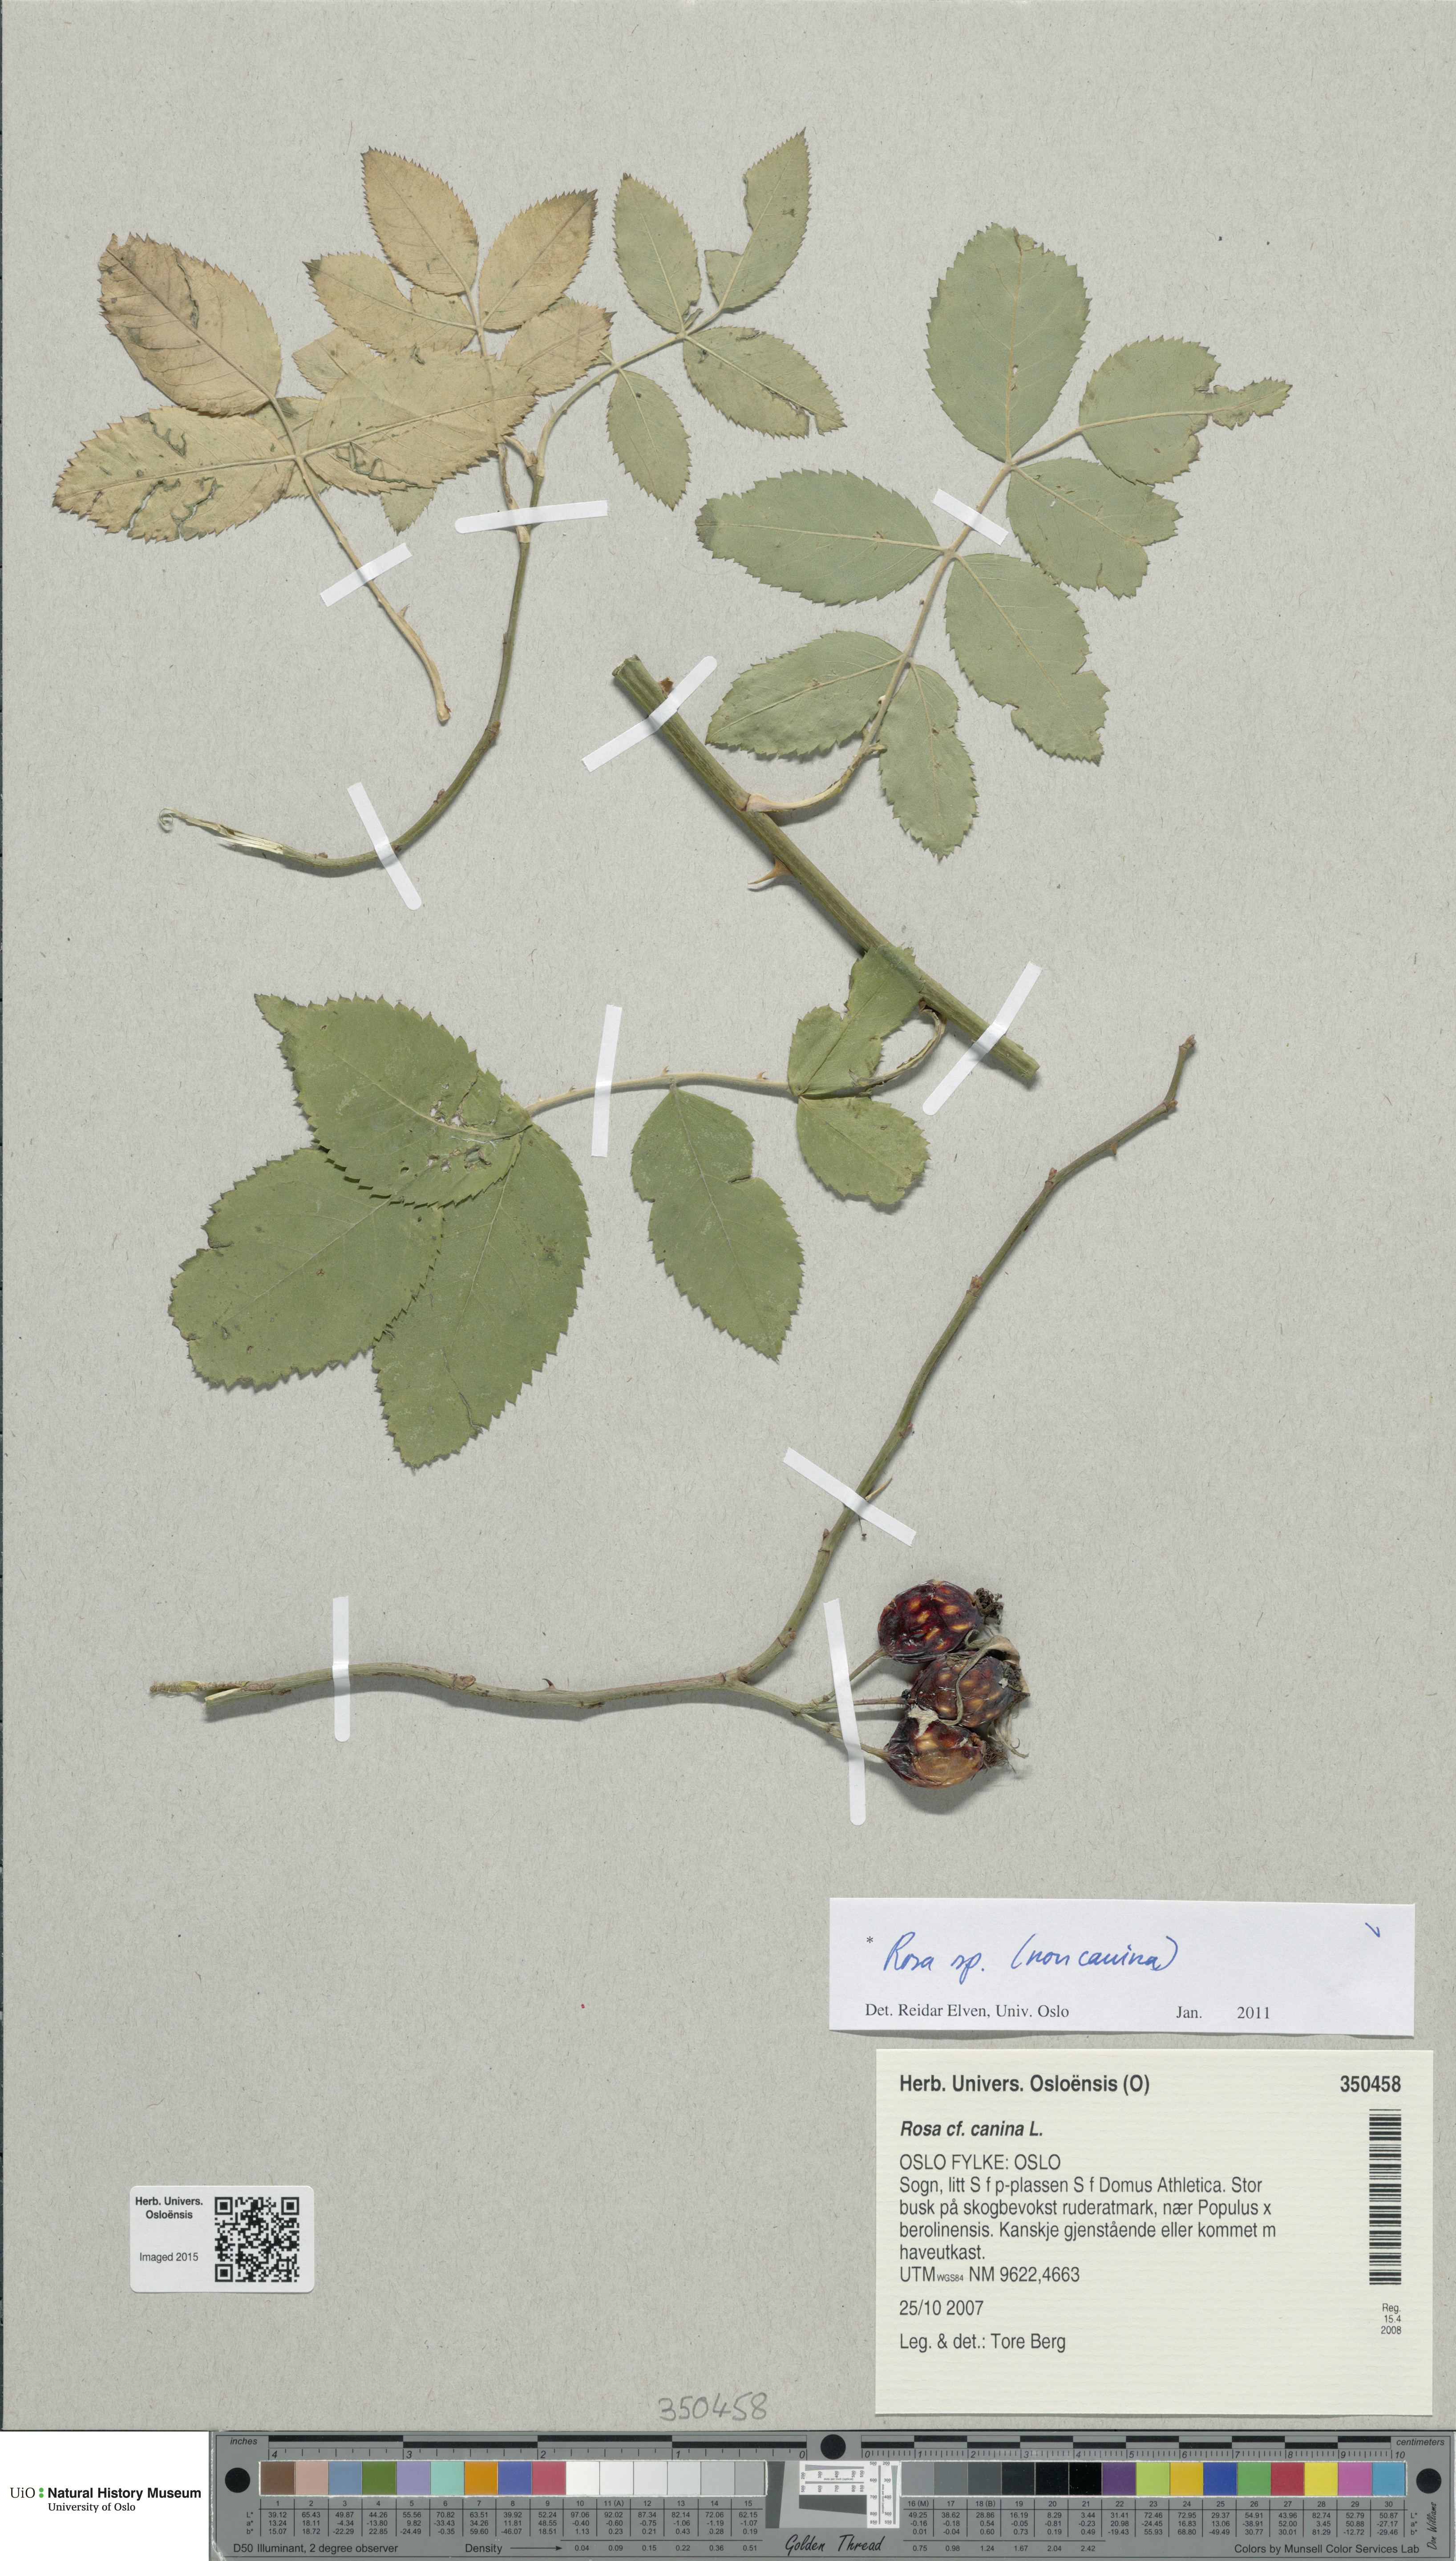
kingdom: Plantae
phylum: Tracheophyta
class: Magnoliopsida
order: Rosales
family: Rosaceae
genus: Rosa
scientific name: Rosa
